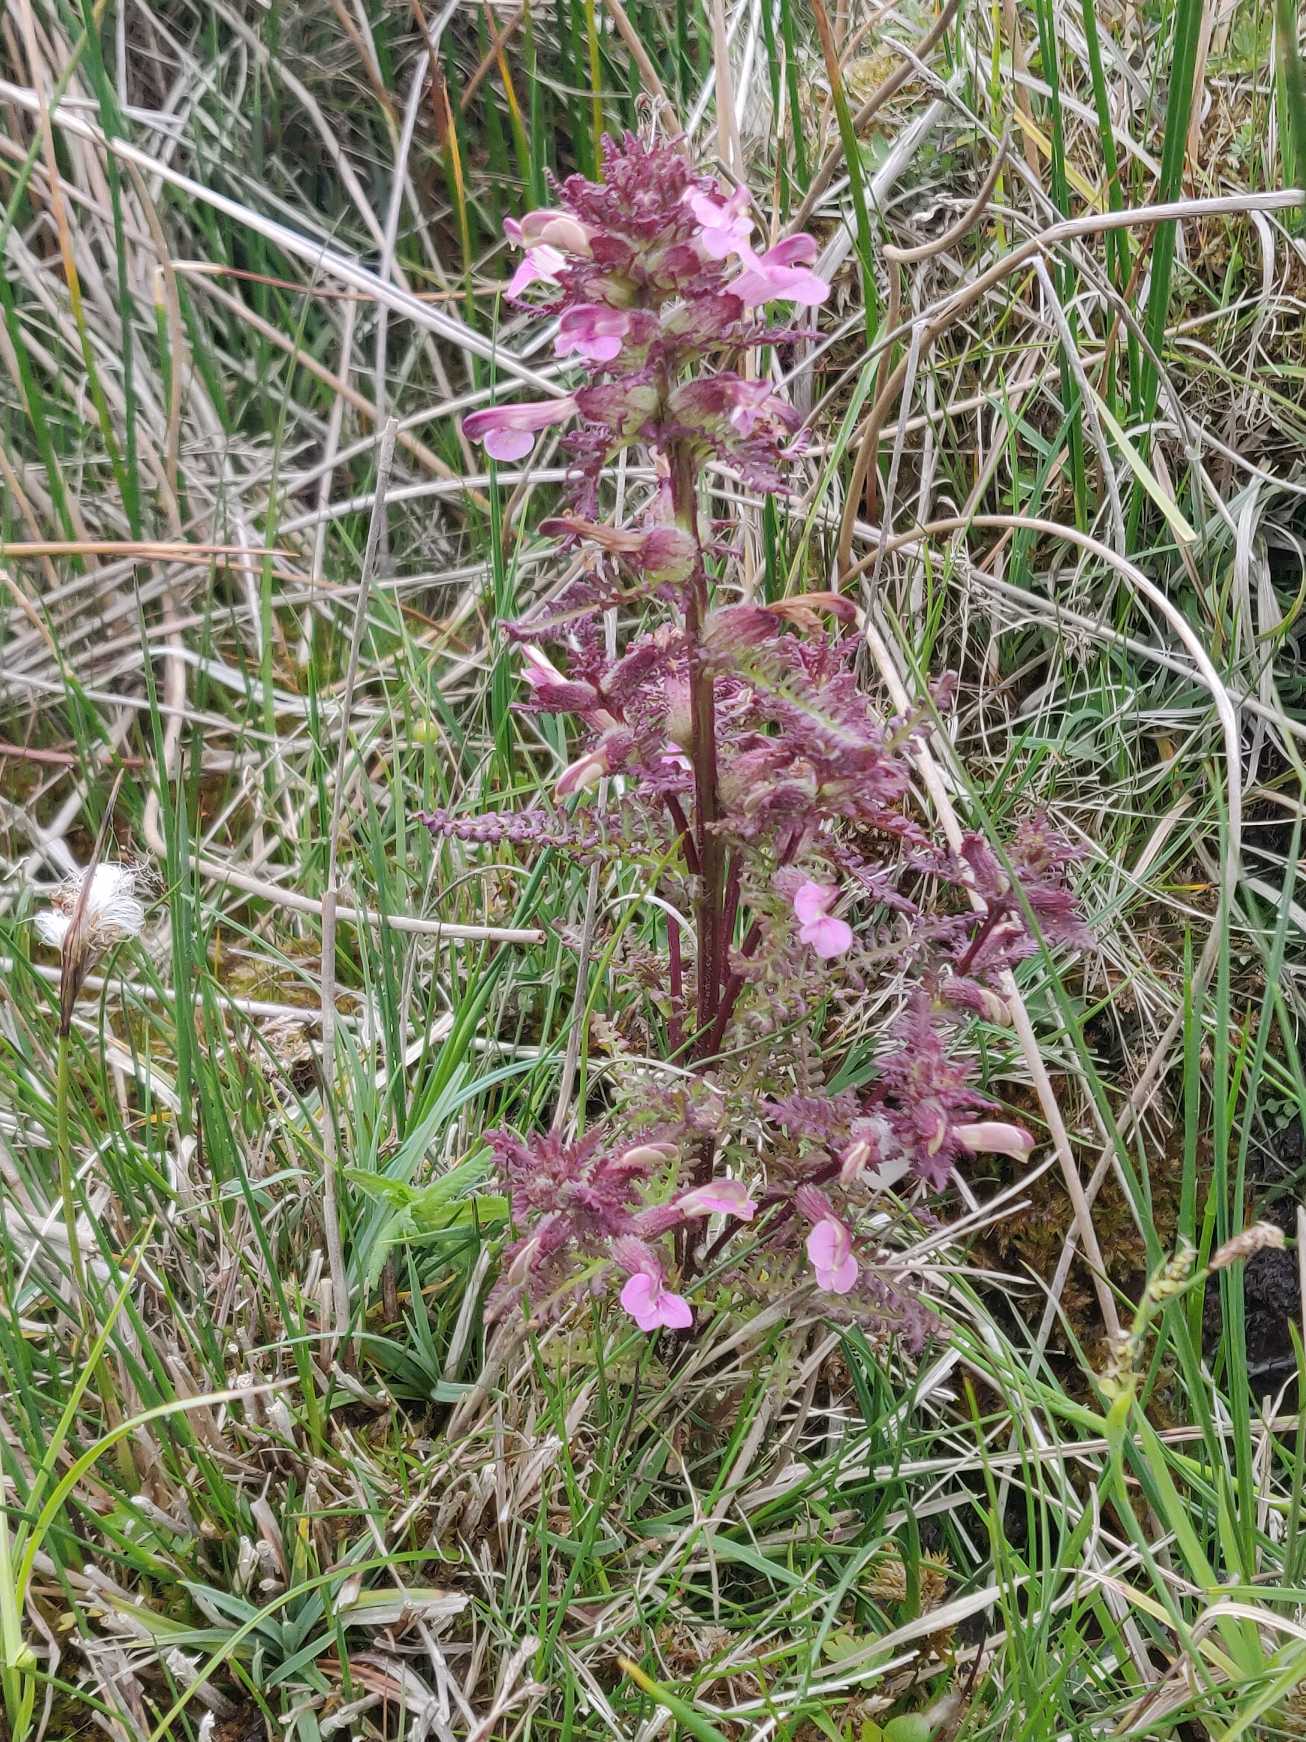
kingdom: Plantae
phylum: Tracheophyta
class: Magnoliopsida
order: Lamiales
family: Orobanchaceae
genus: Pedicularis
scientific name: Pedicularis palustris
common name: Eng-troldurt
